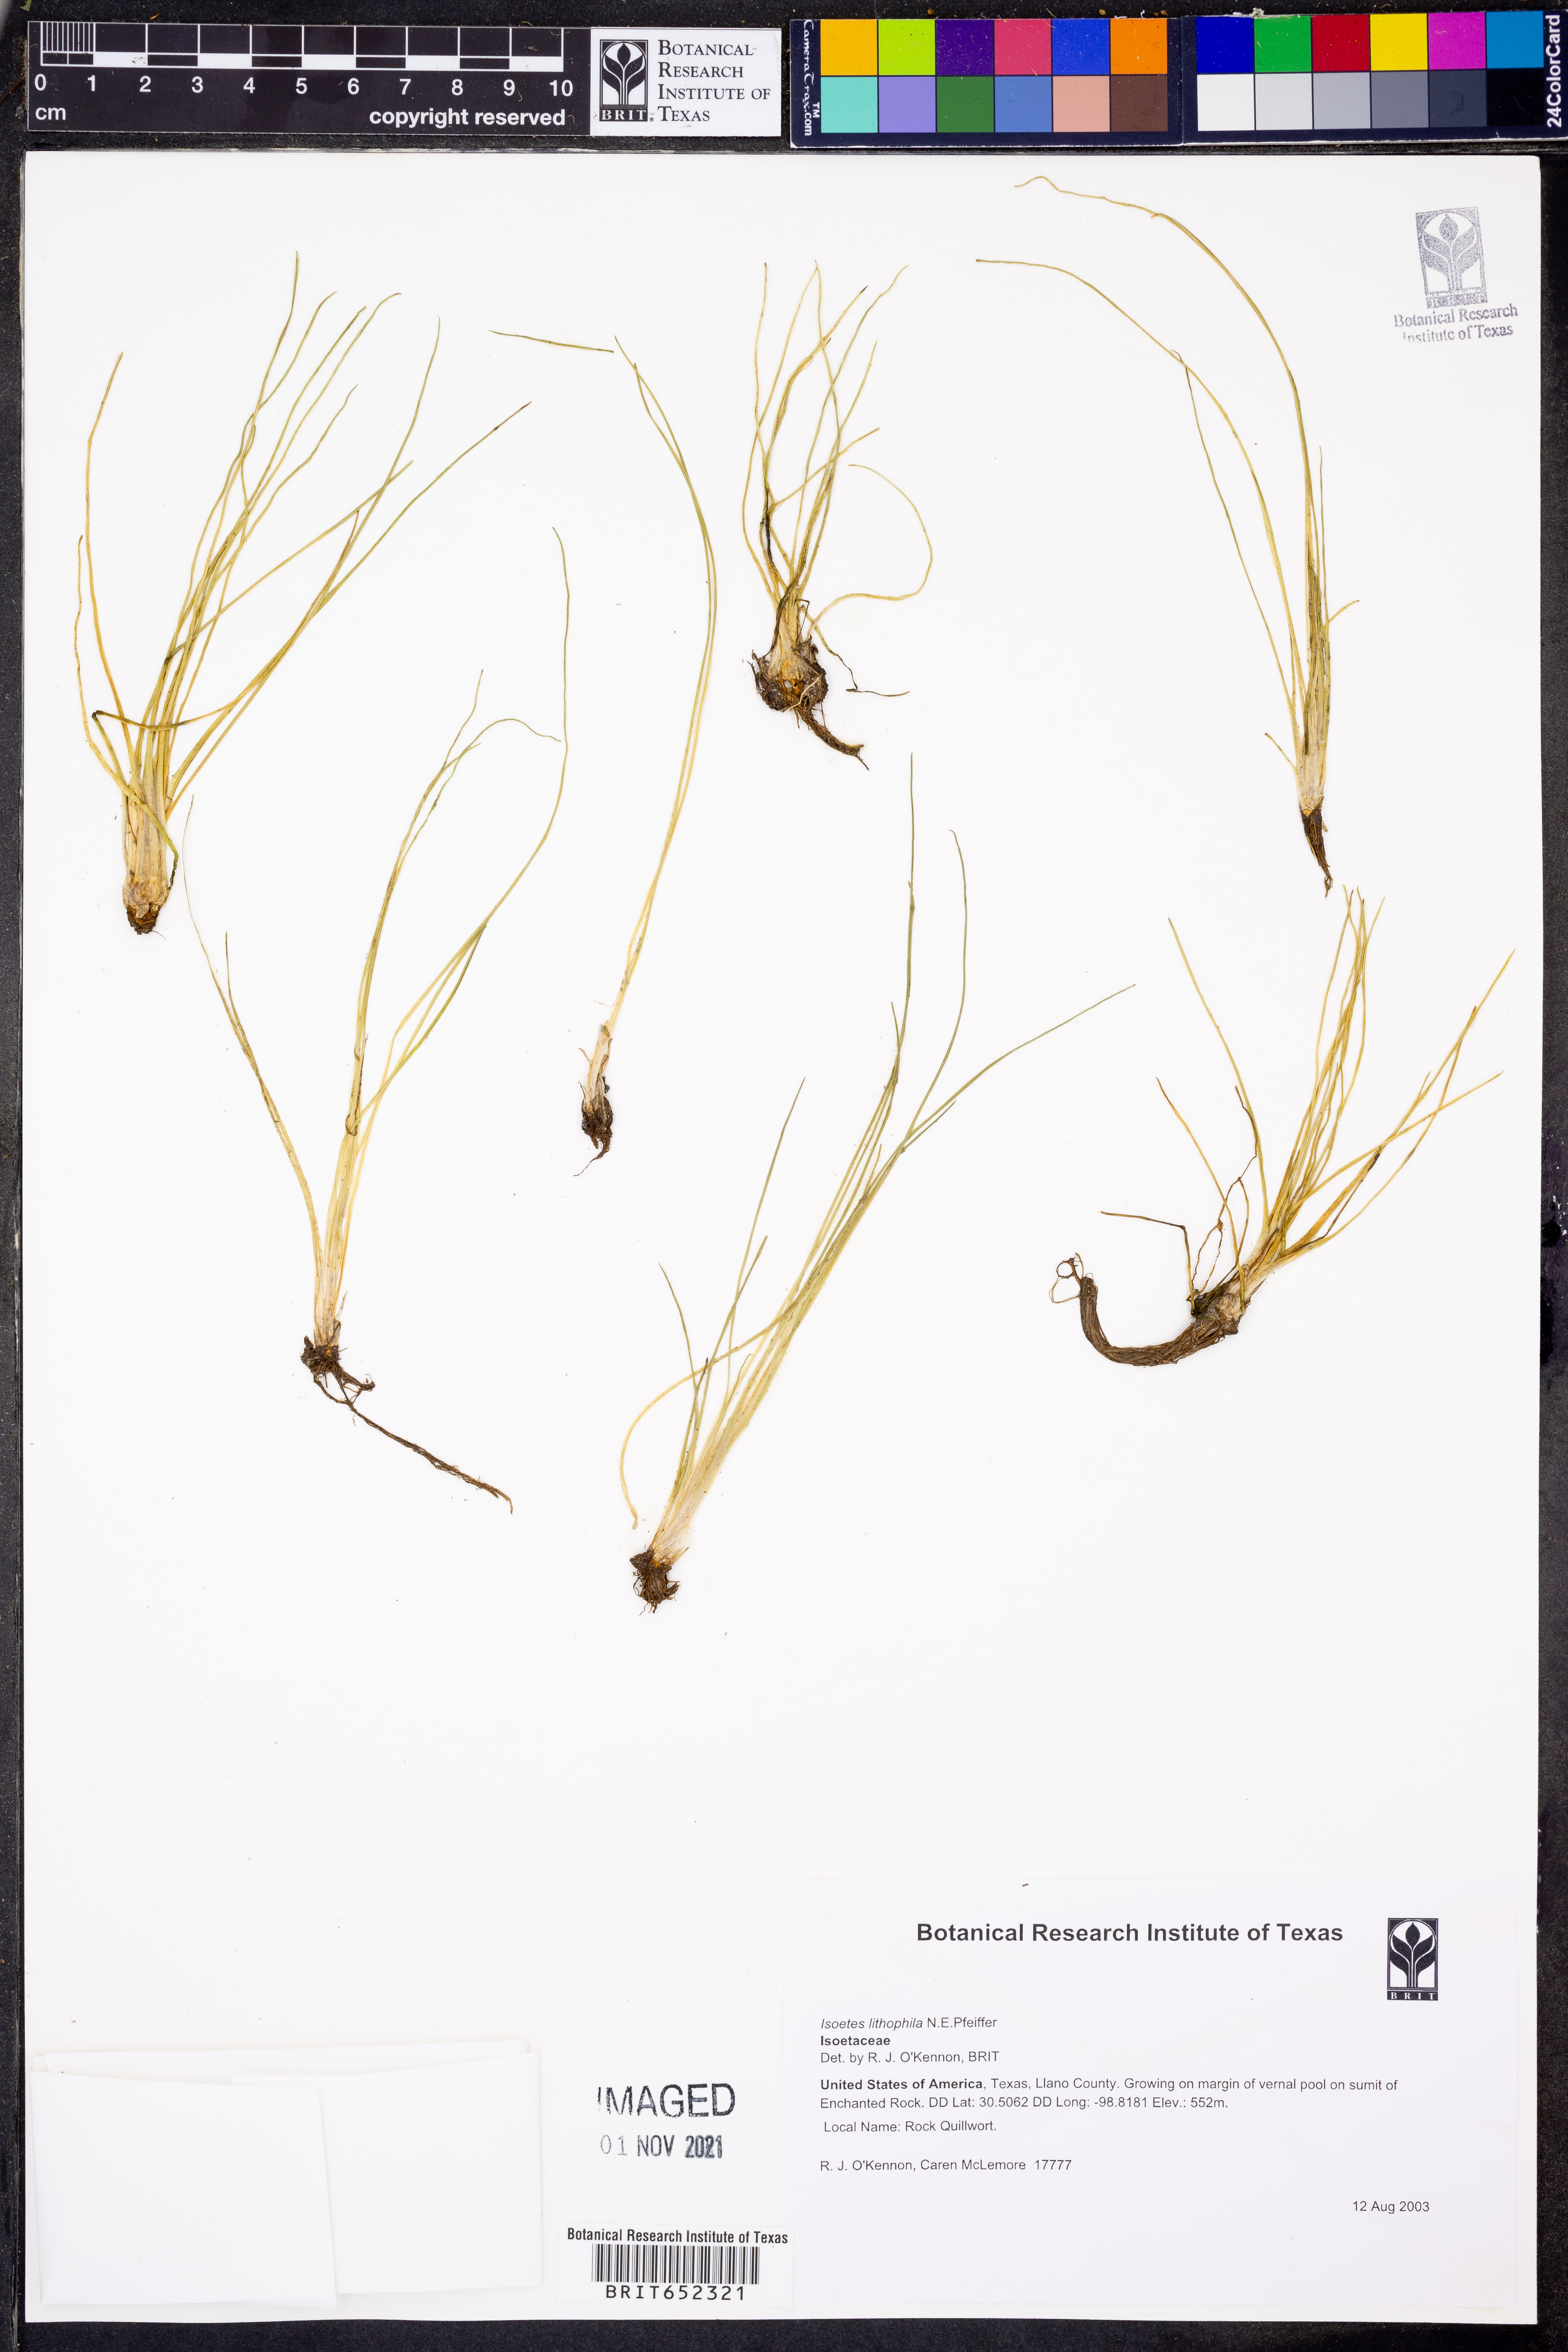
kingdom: Plantae
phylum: Tracheophyta
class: Lycopodiopsida
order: Isoetales
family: Isoetaceae
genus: Isoetes
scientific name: Isoetes lithophila
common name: Rock quillwort
